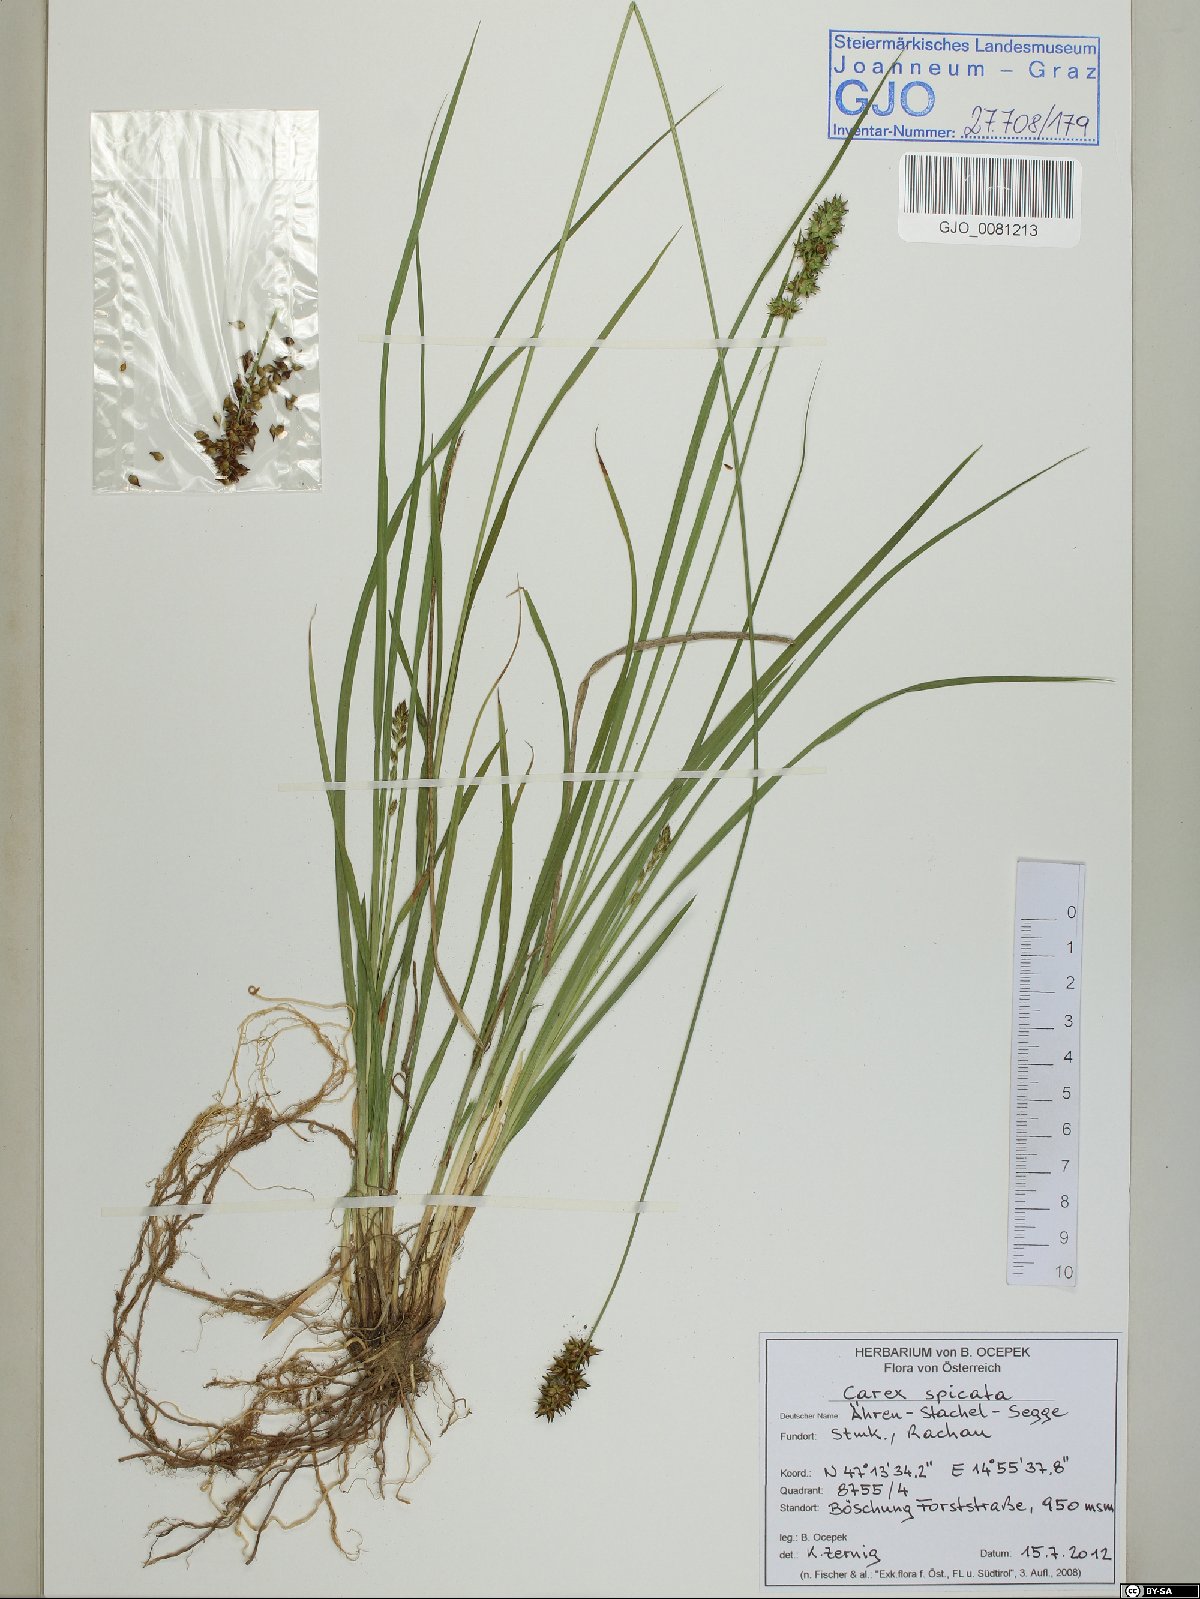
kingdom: Plantae
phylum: Tracheophyta
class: Liliopsida
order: Poales
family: Cyperaceae
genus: Carex
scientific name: Carex spicata
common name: Spiked sedge
